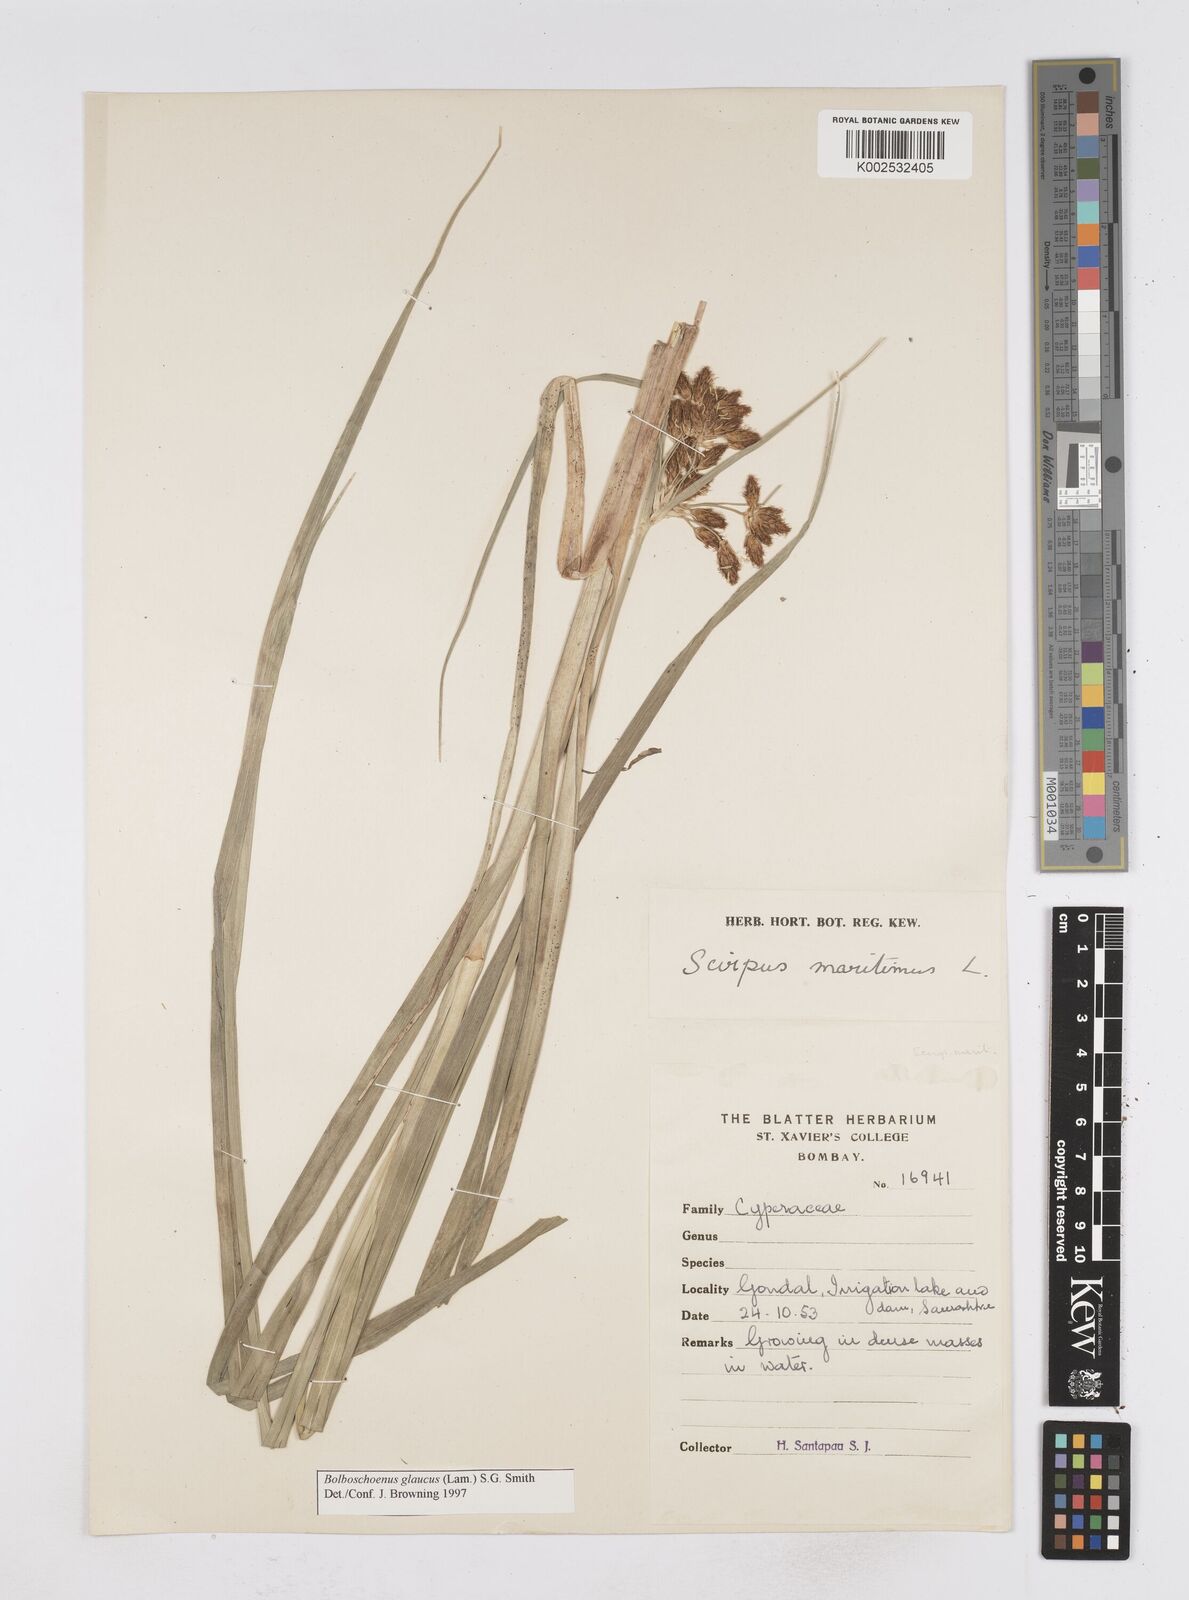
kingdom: Plantae
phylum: Tracheophyta
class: Liliopsida
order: Poales
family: Cyperaceae
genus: Bolboschoenus
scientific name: Bolboschoenus maritimus
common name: Sea club-rush
